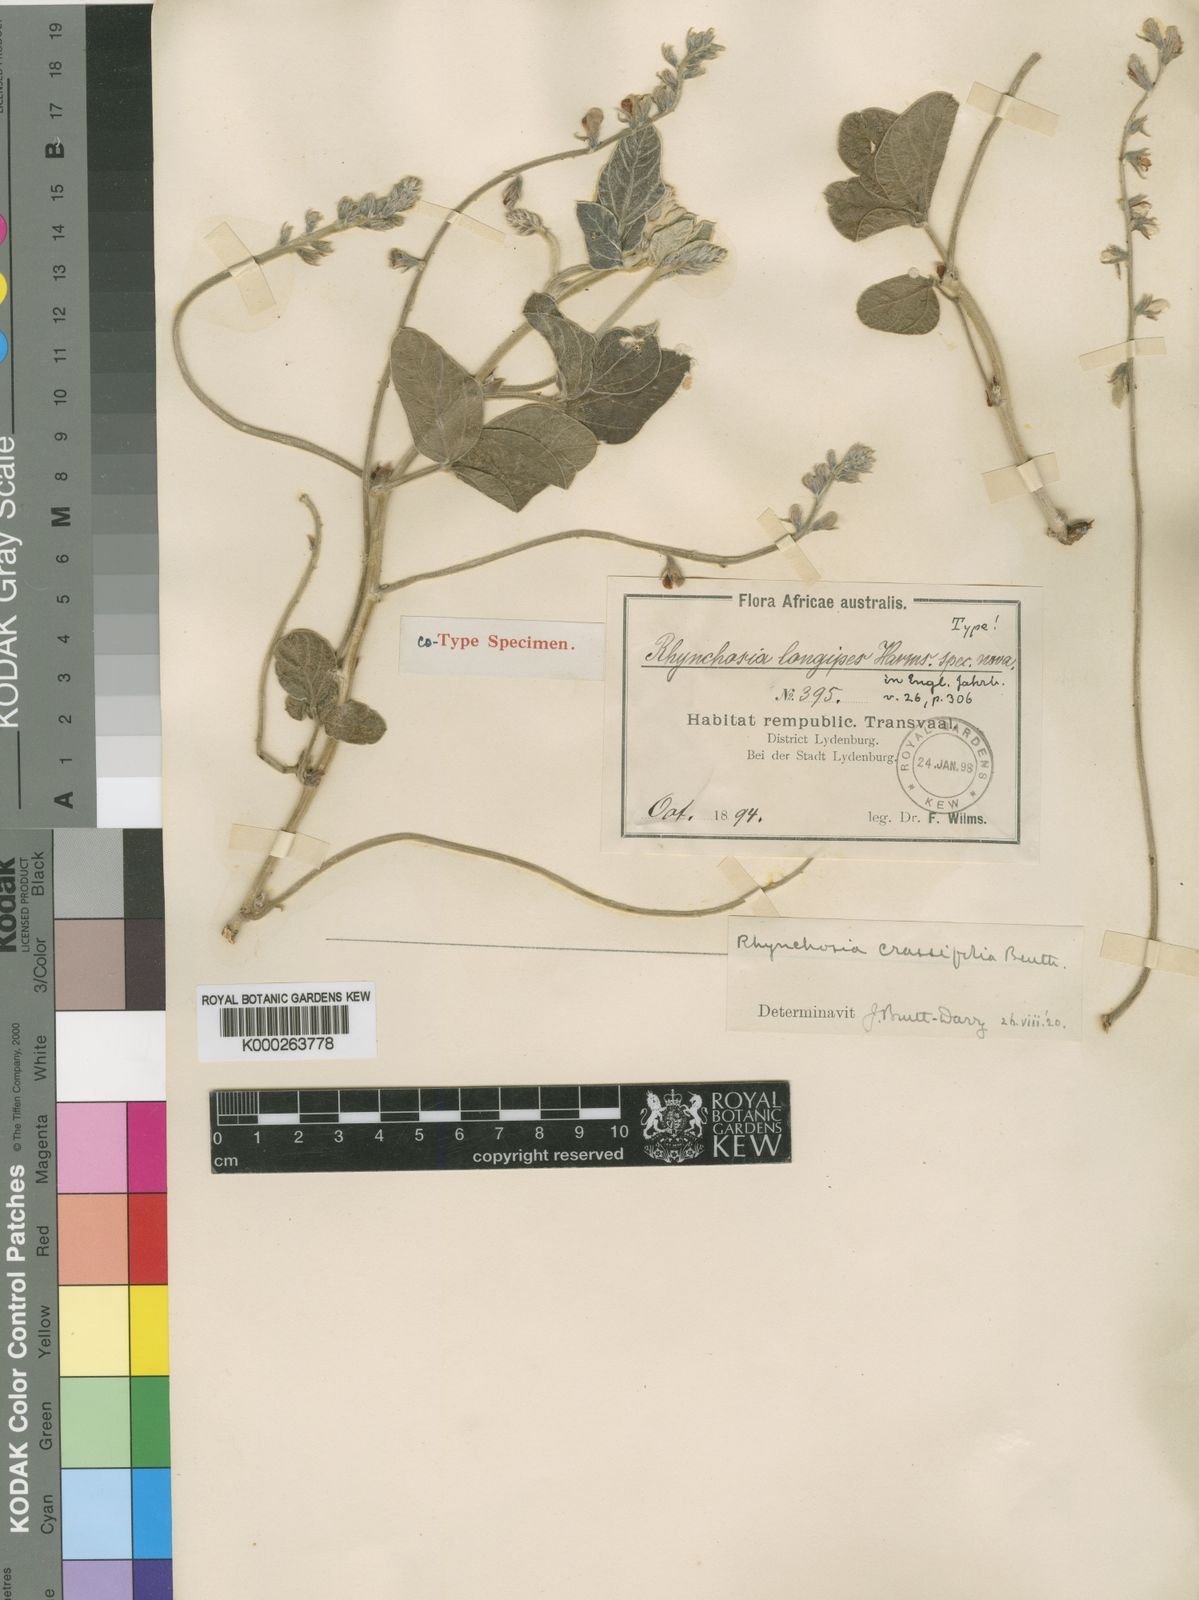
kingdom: Plantae
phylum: Tracheophyta
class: Magnoliopsida
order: Fabales
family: Fabaceae
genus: Rhynchosia
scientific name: Rhynchosia
